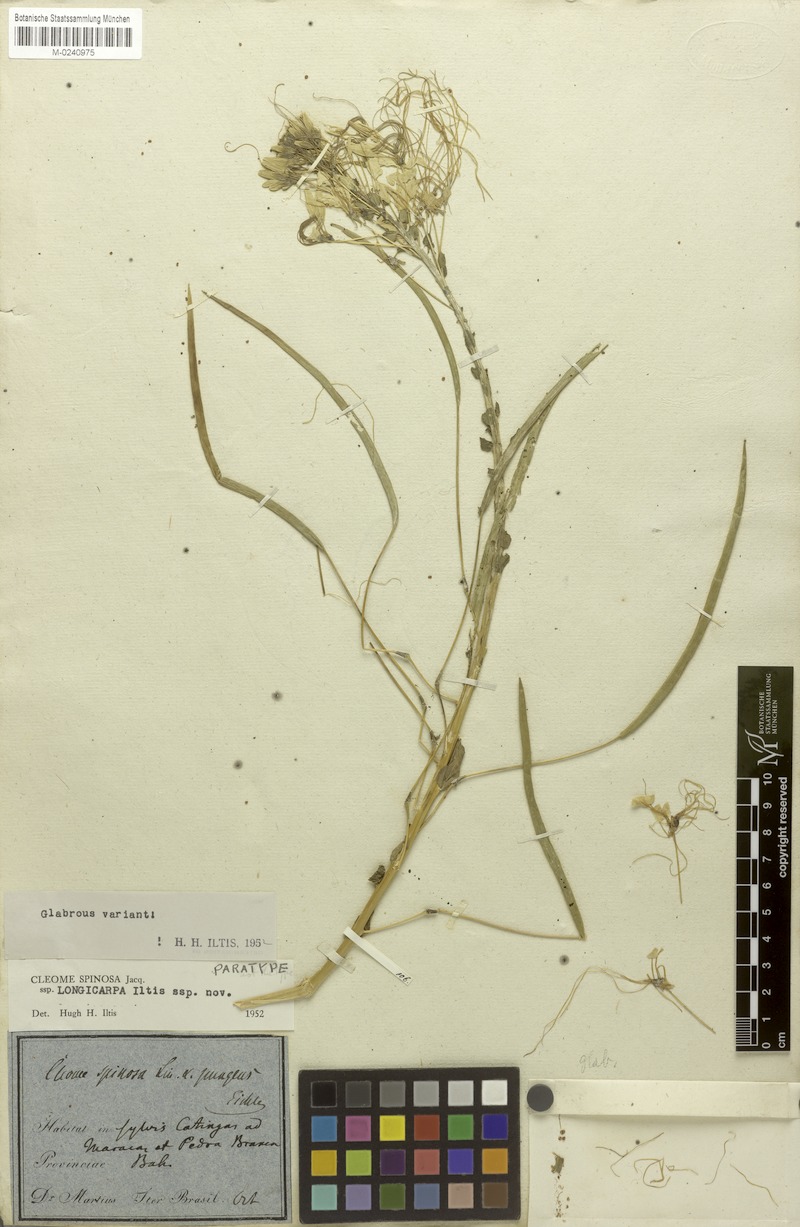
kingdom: Plantae
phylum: Tracheophyta
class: Magnoliopsida
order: Brassicales
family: Cleomaceae
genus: Tarenaya
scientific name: Tarenaya spinosa
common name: Spiny spiderflower
